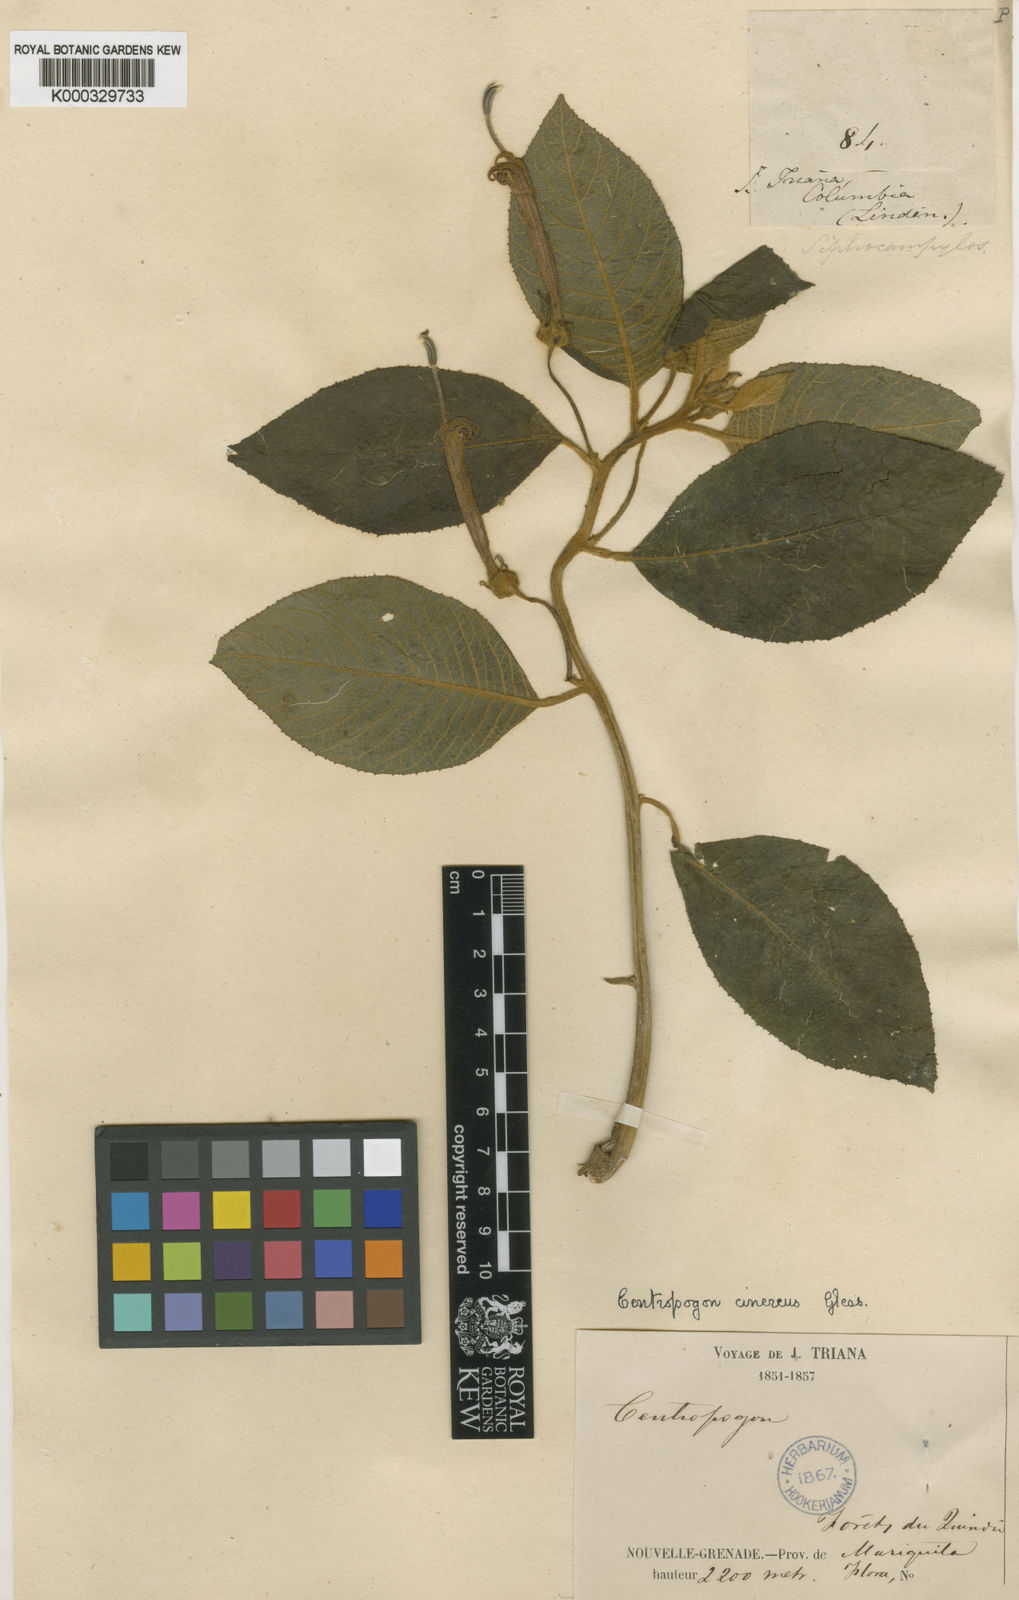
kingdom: Plantae
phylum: Tracheophyta
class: Magnoliopsida
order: Asterales
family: Campanulaceae
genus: Centropogon
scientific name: Centropogon verbascifolius
